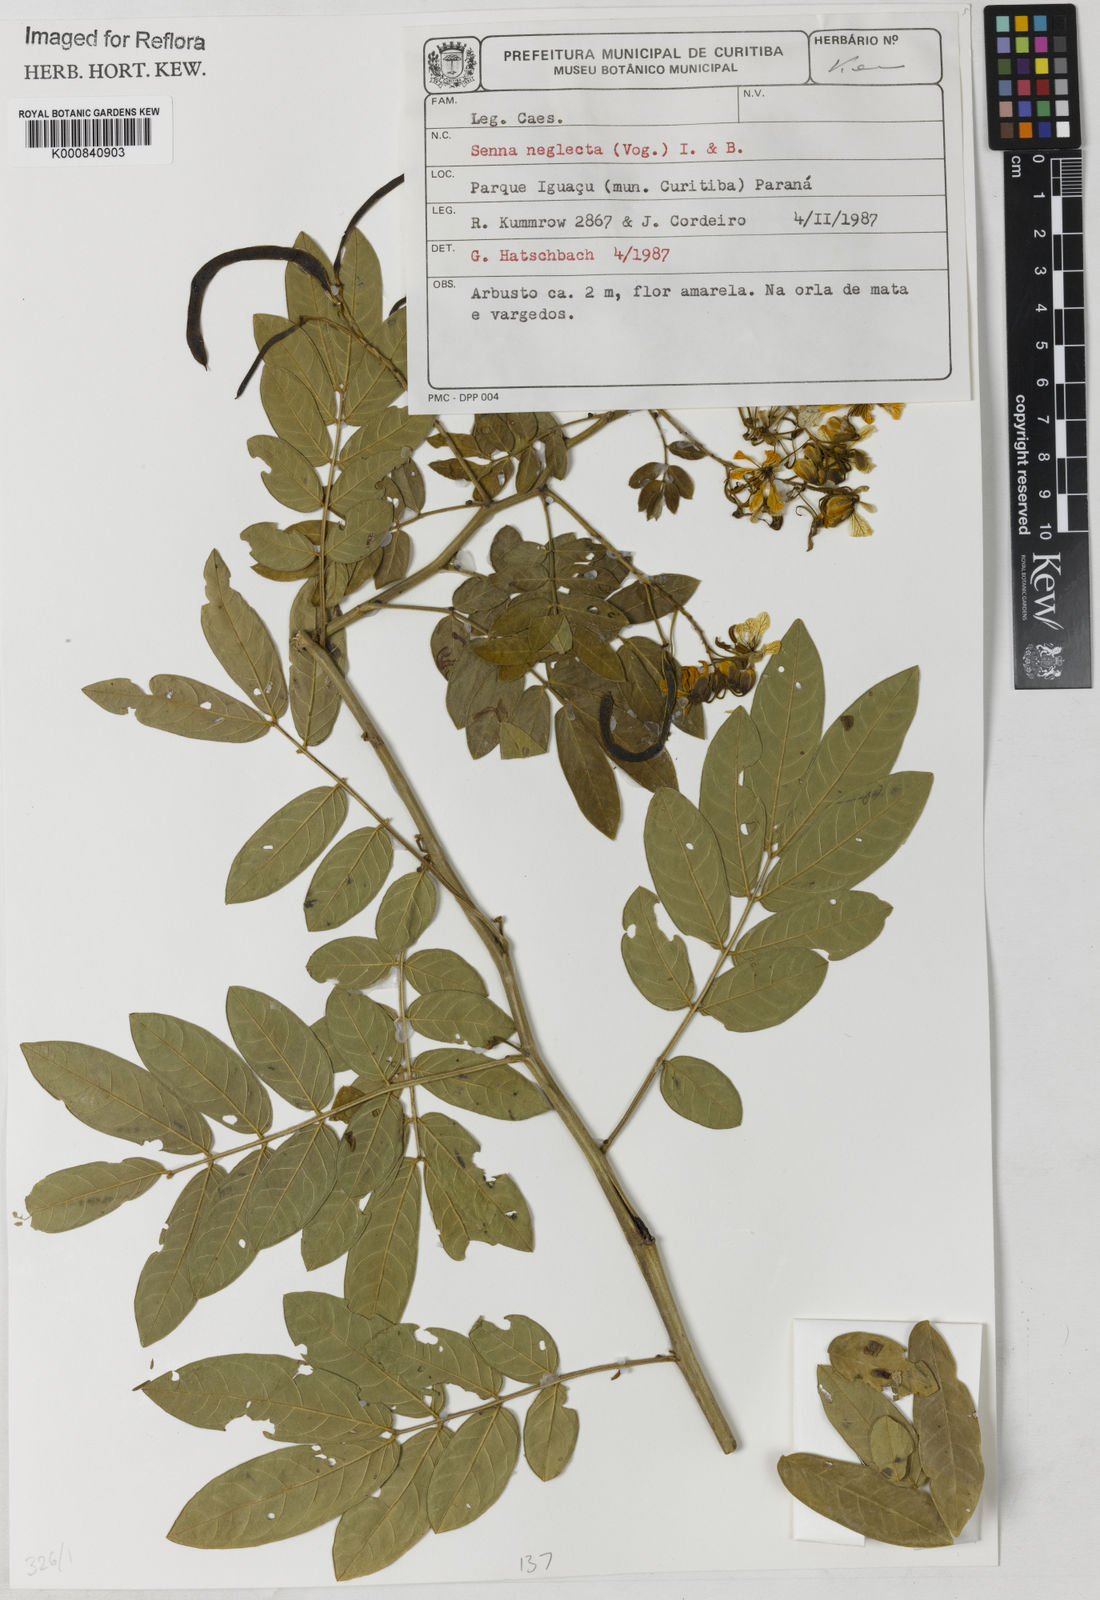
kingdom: Plantae
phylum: Tracheophyta
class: Magnoliopsida
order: Fabales
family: Fabaceae
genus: Senna
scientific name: Senna neglecta
